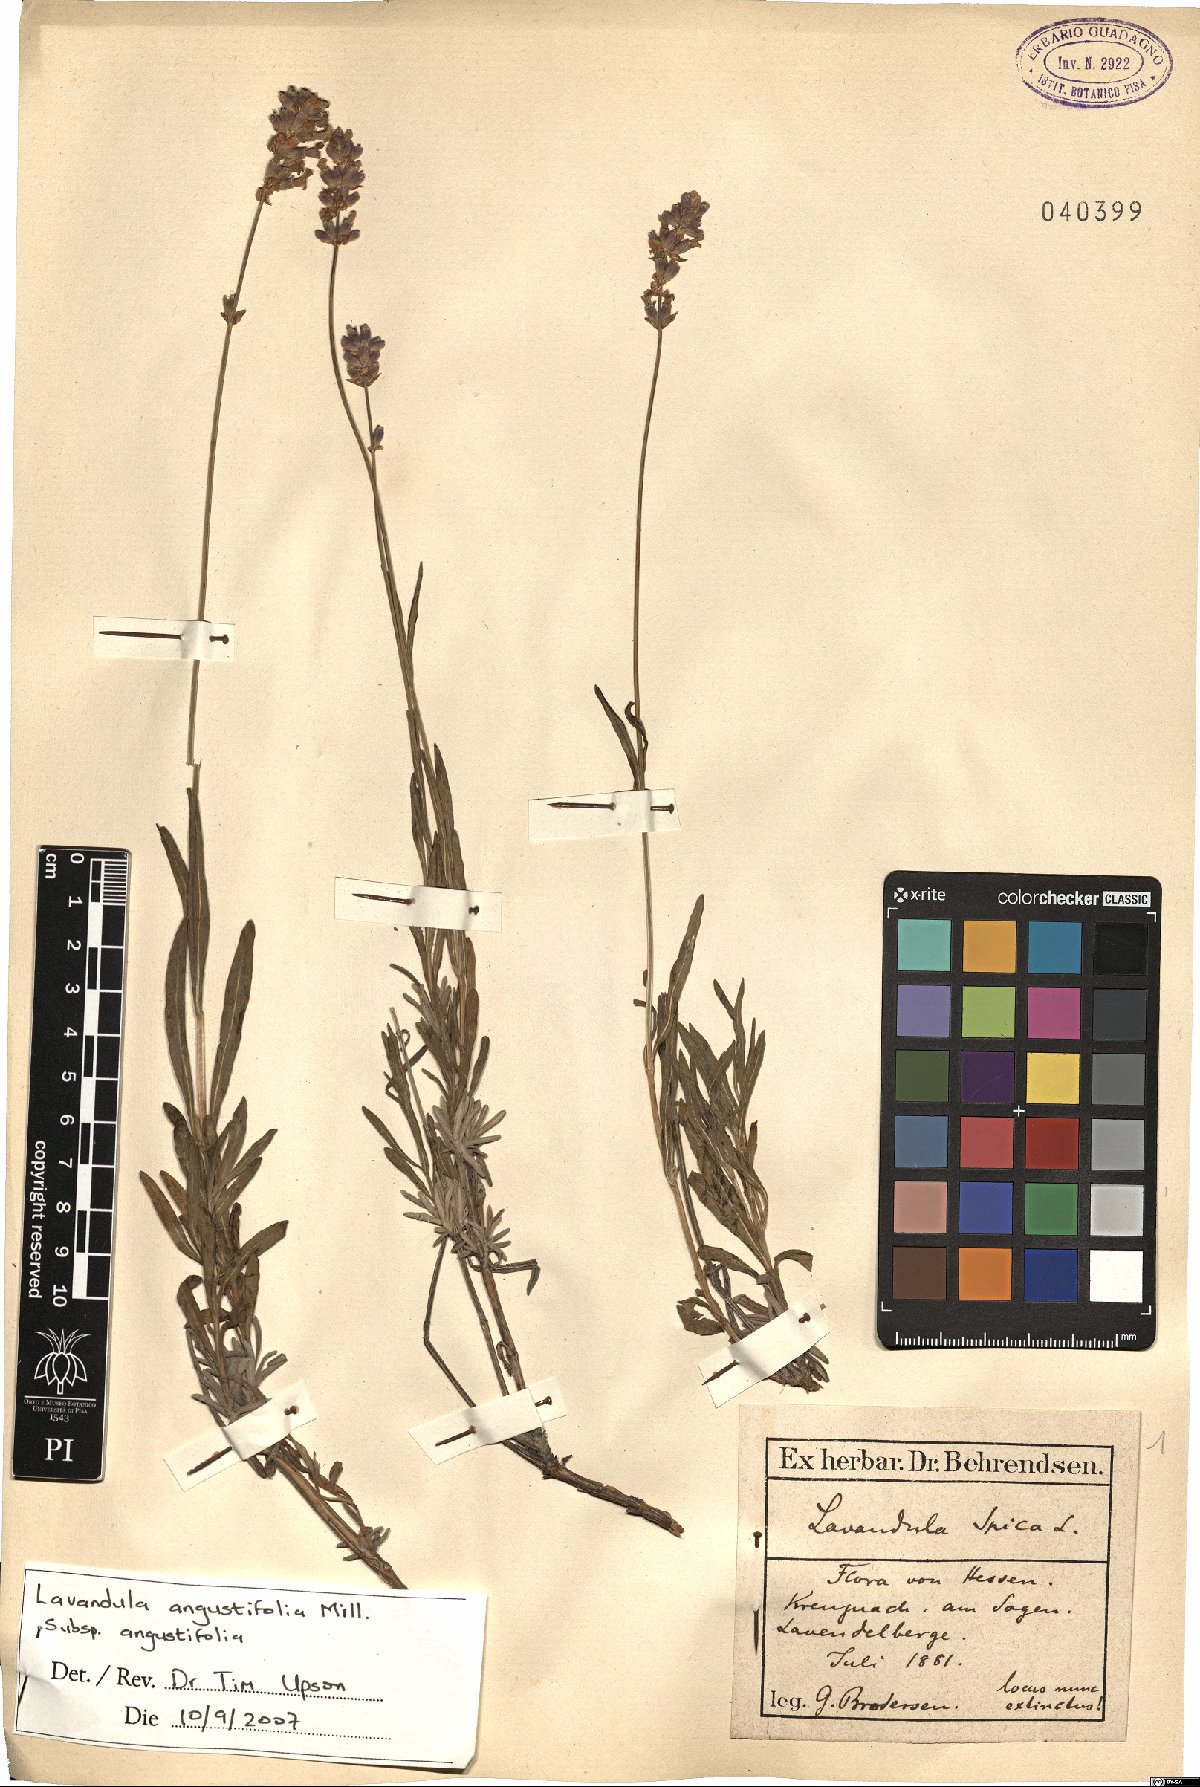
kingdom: Plantae
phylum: Tracheophyta
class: Magnoliopsida
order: Lamiales
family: Lamiaceae
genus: Lavandula
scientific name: Lavandula angustifolia
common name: Garden lavender
